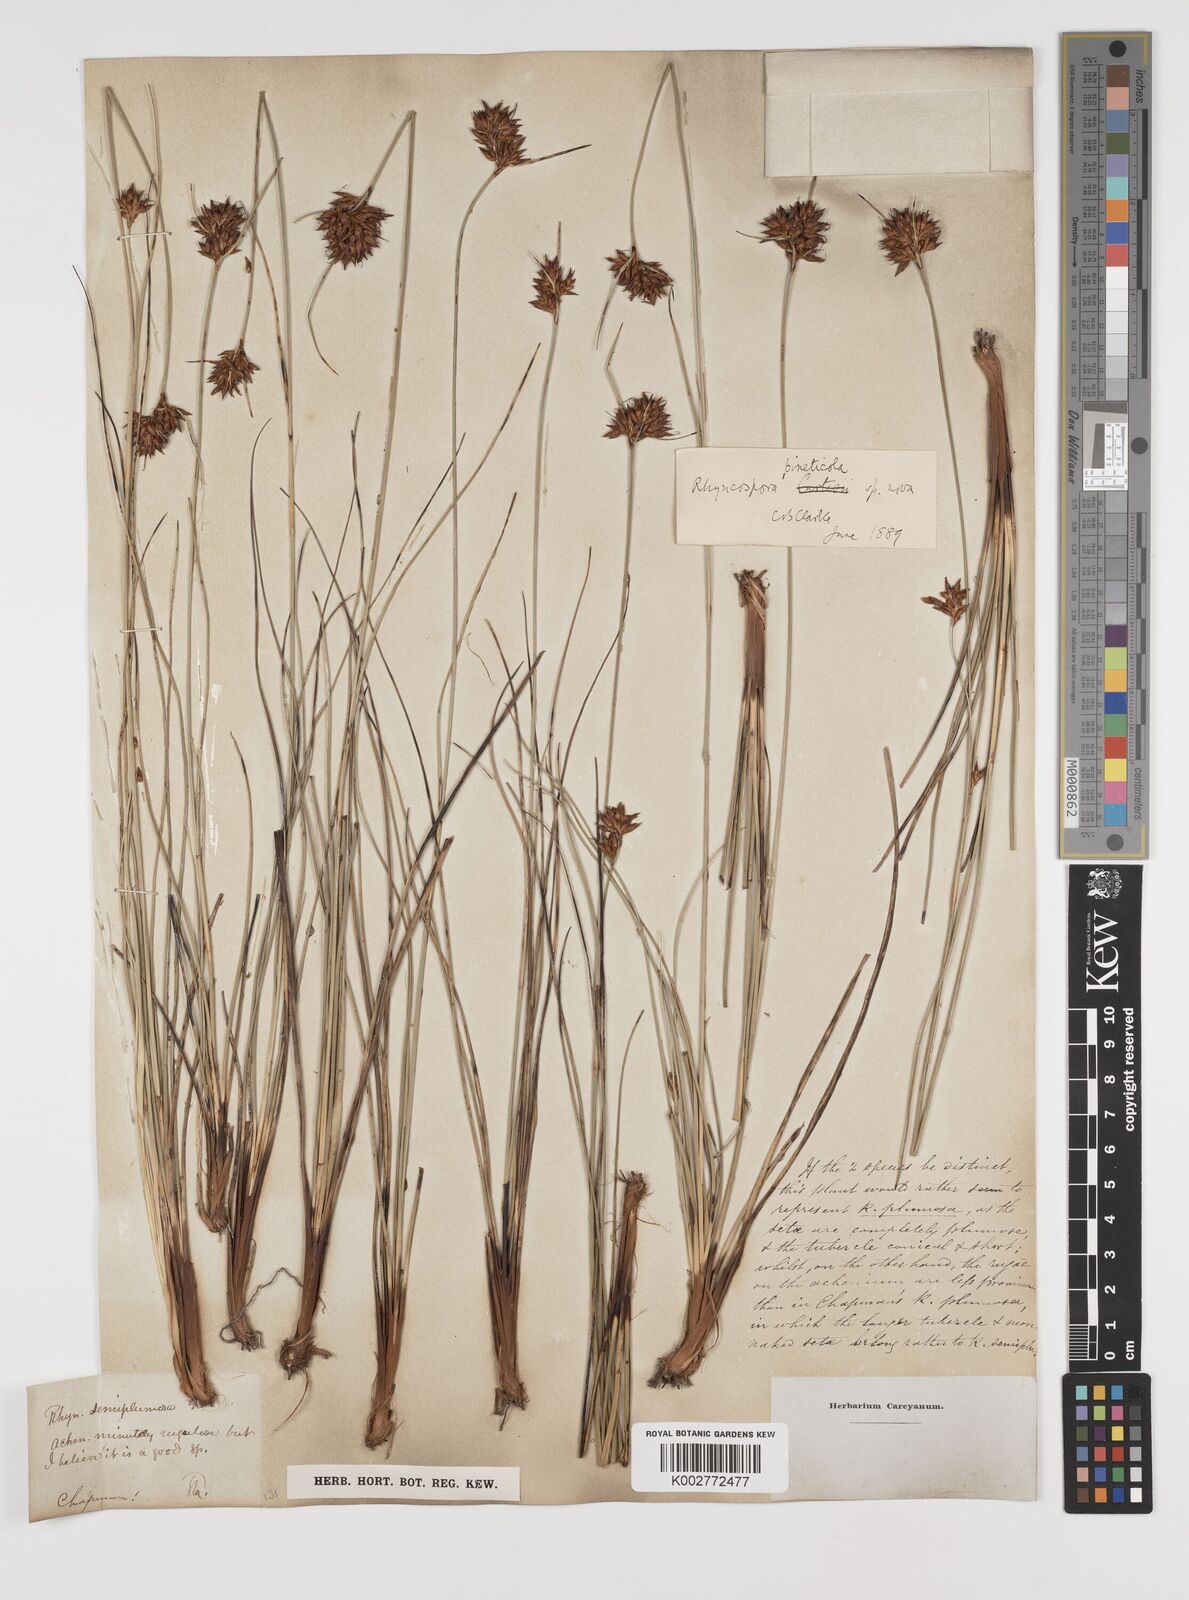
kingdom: Plantae
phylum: Tracheophyta
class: Liliopsida
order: Poales
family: Cyperaceae
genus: Rhynchospora
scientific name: Rhynchospora plumosa
